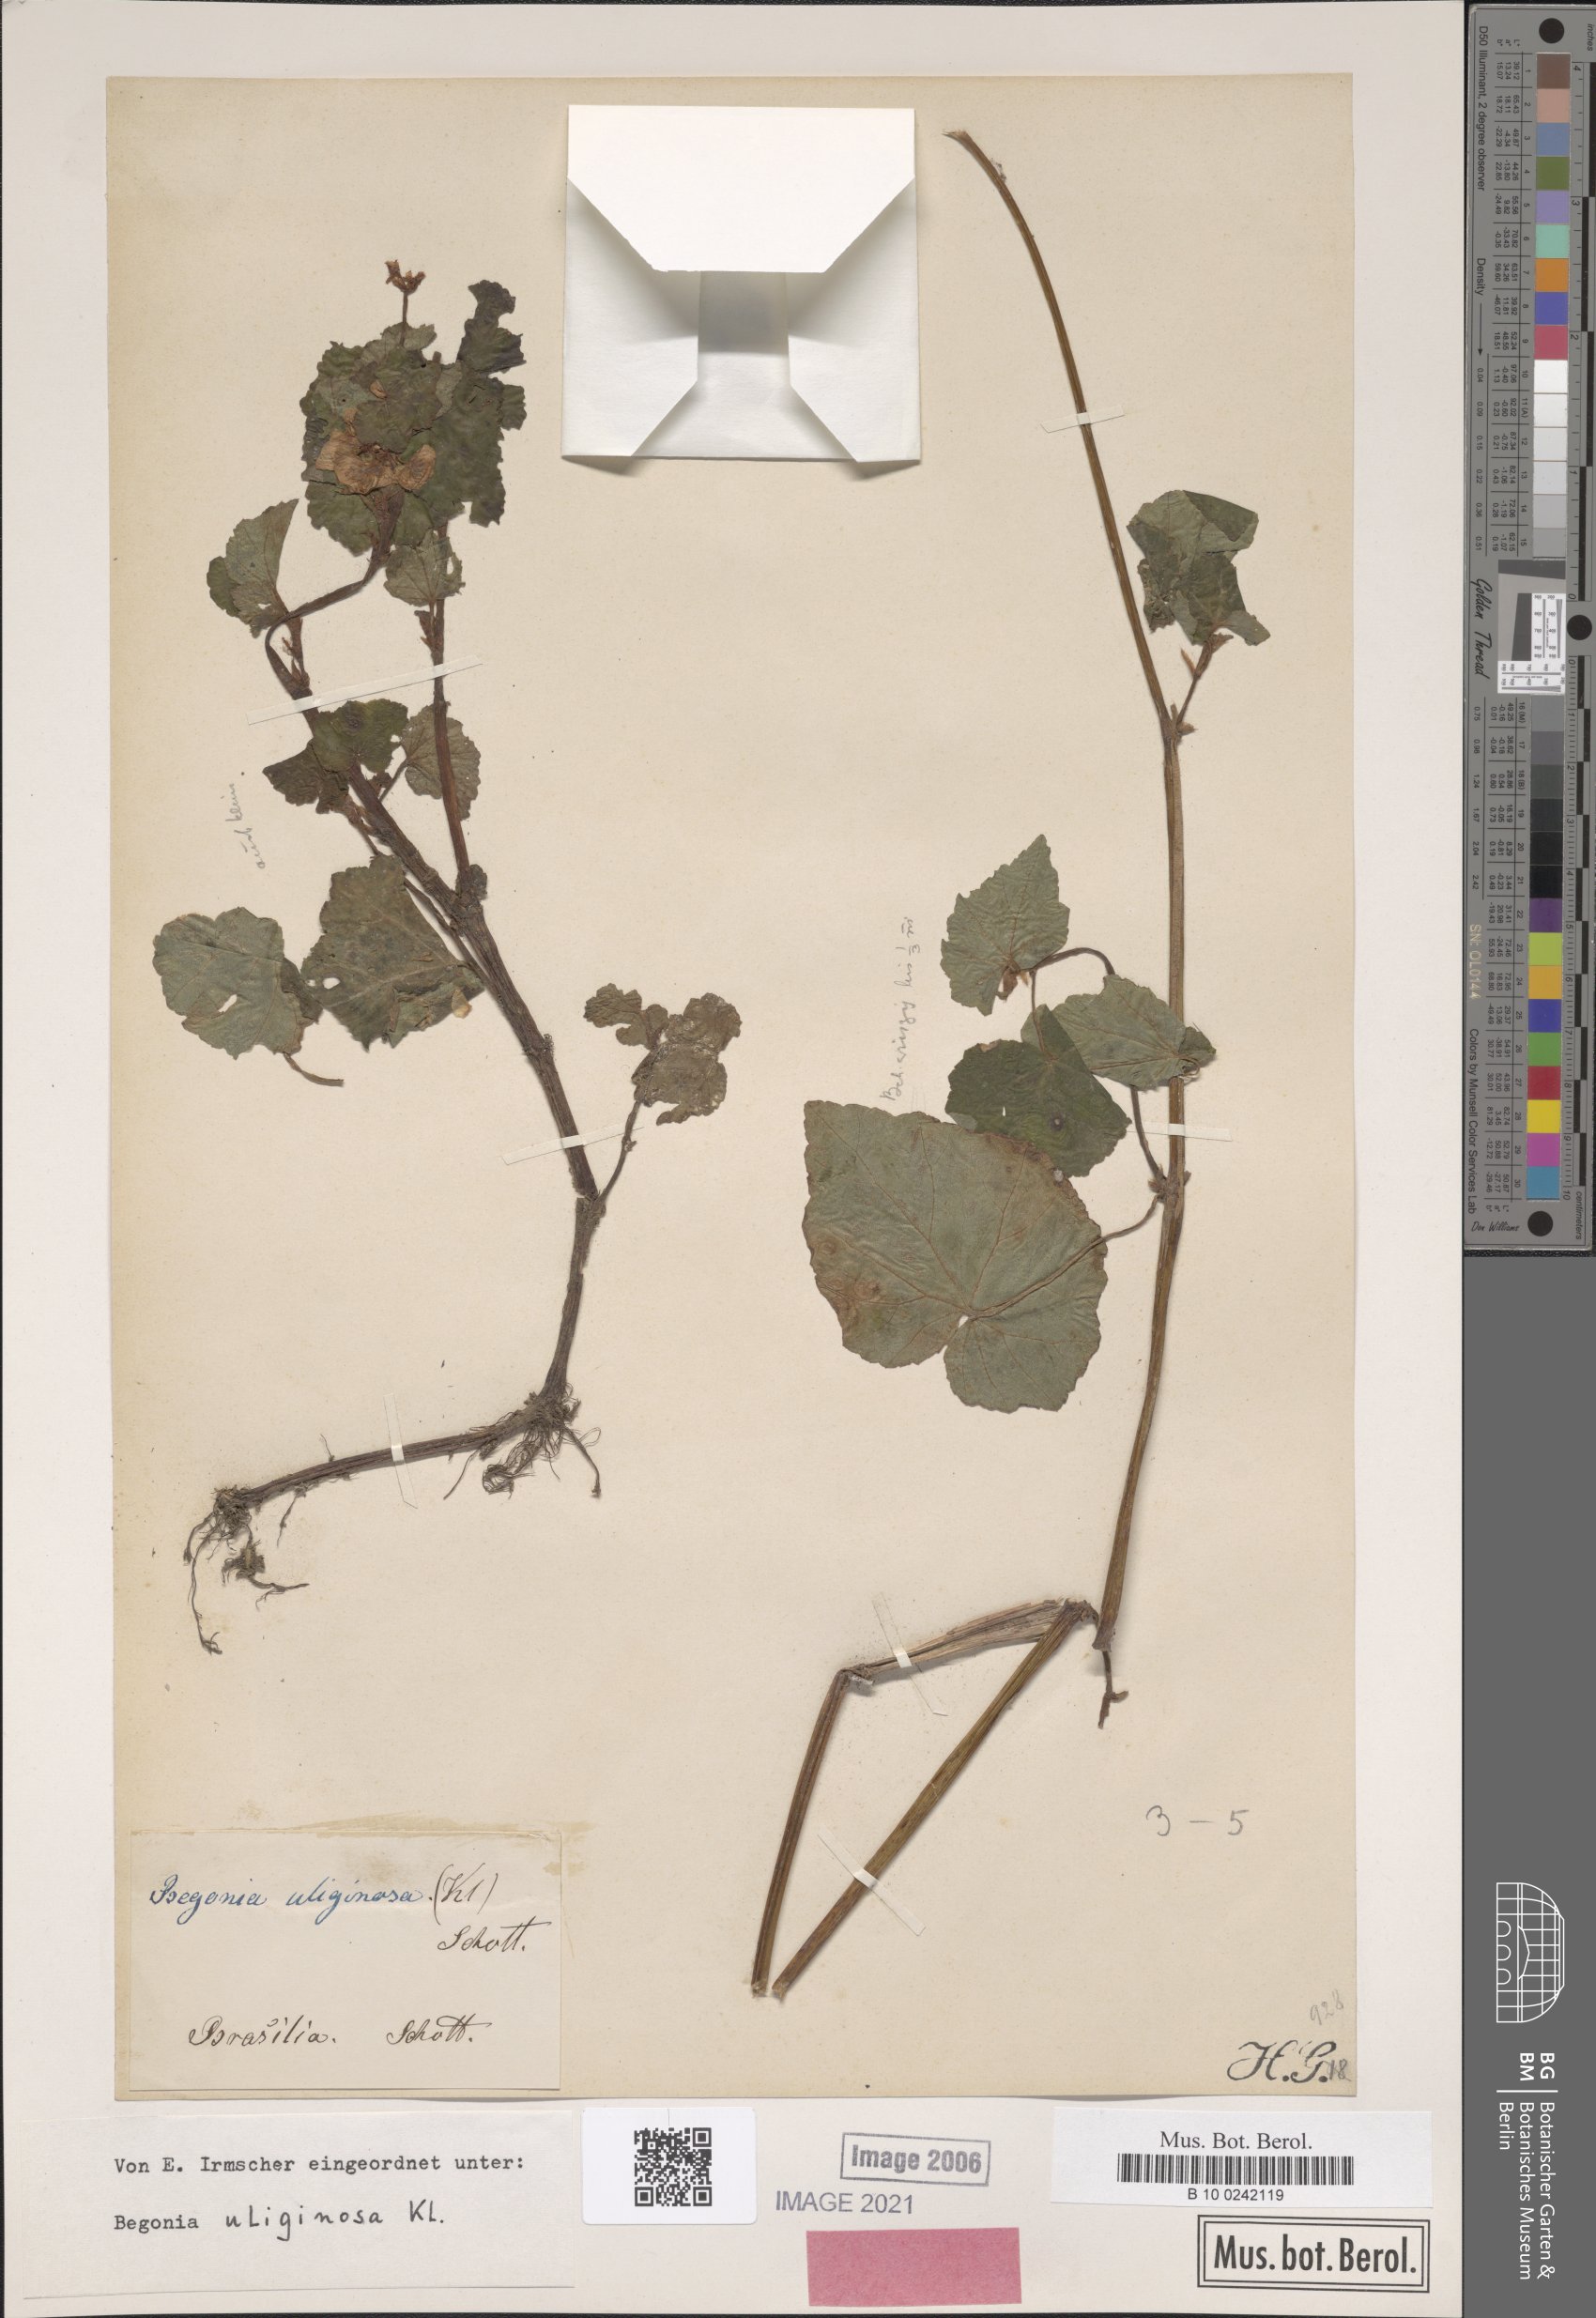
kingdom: Plantae
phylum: Tracheophyta
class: Magnoliopsida
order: Cucurbitales
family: Begoniaceae
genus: Begonia
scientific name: Begonia fischeri
